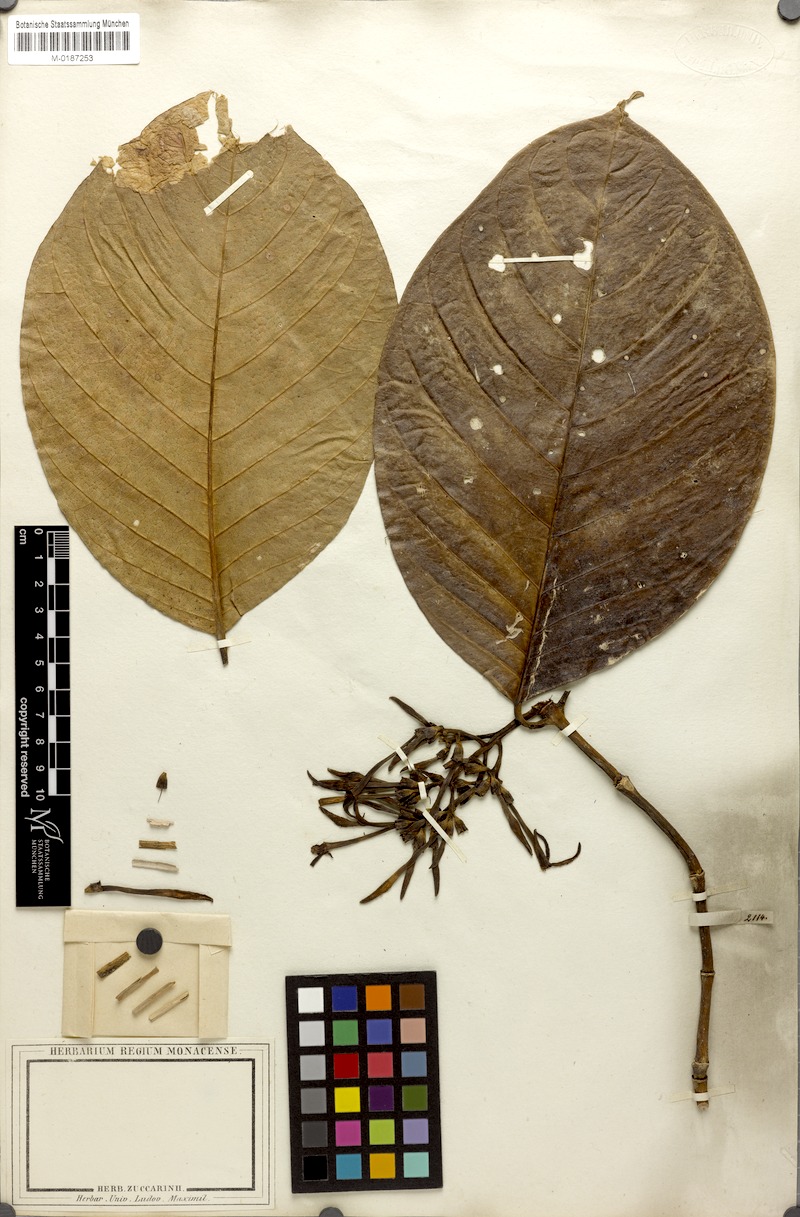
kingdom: Plantae
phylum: Tracheophyta
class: Magnoliopsida
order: Gentianales
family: Rubiaceae
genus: Coussarea
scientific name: Coussarea macrophylla
